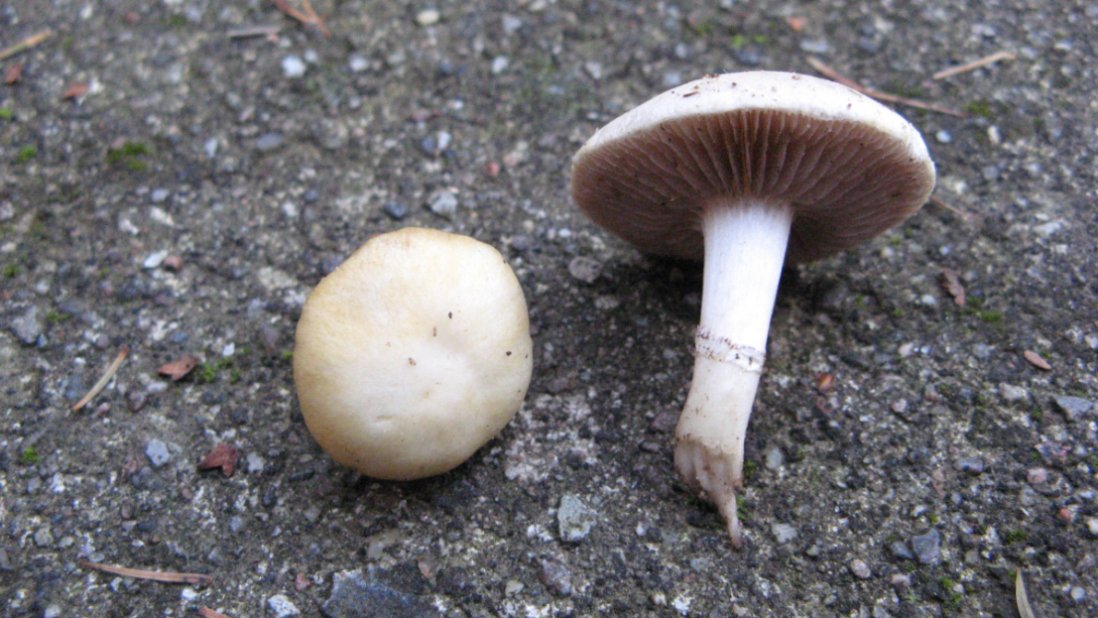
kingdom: Fungi
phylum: Basidiomycota
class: Agaricomycetes
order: Agaricales
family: Hymenogastraceae
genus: Psilocybe
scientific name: Psilocybe coronilla
